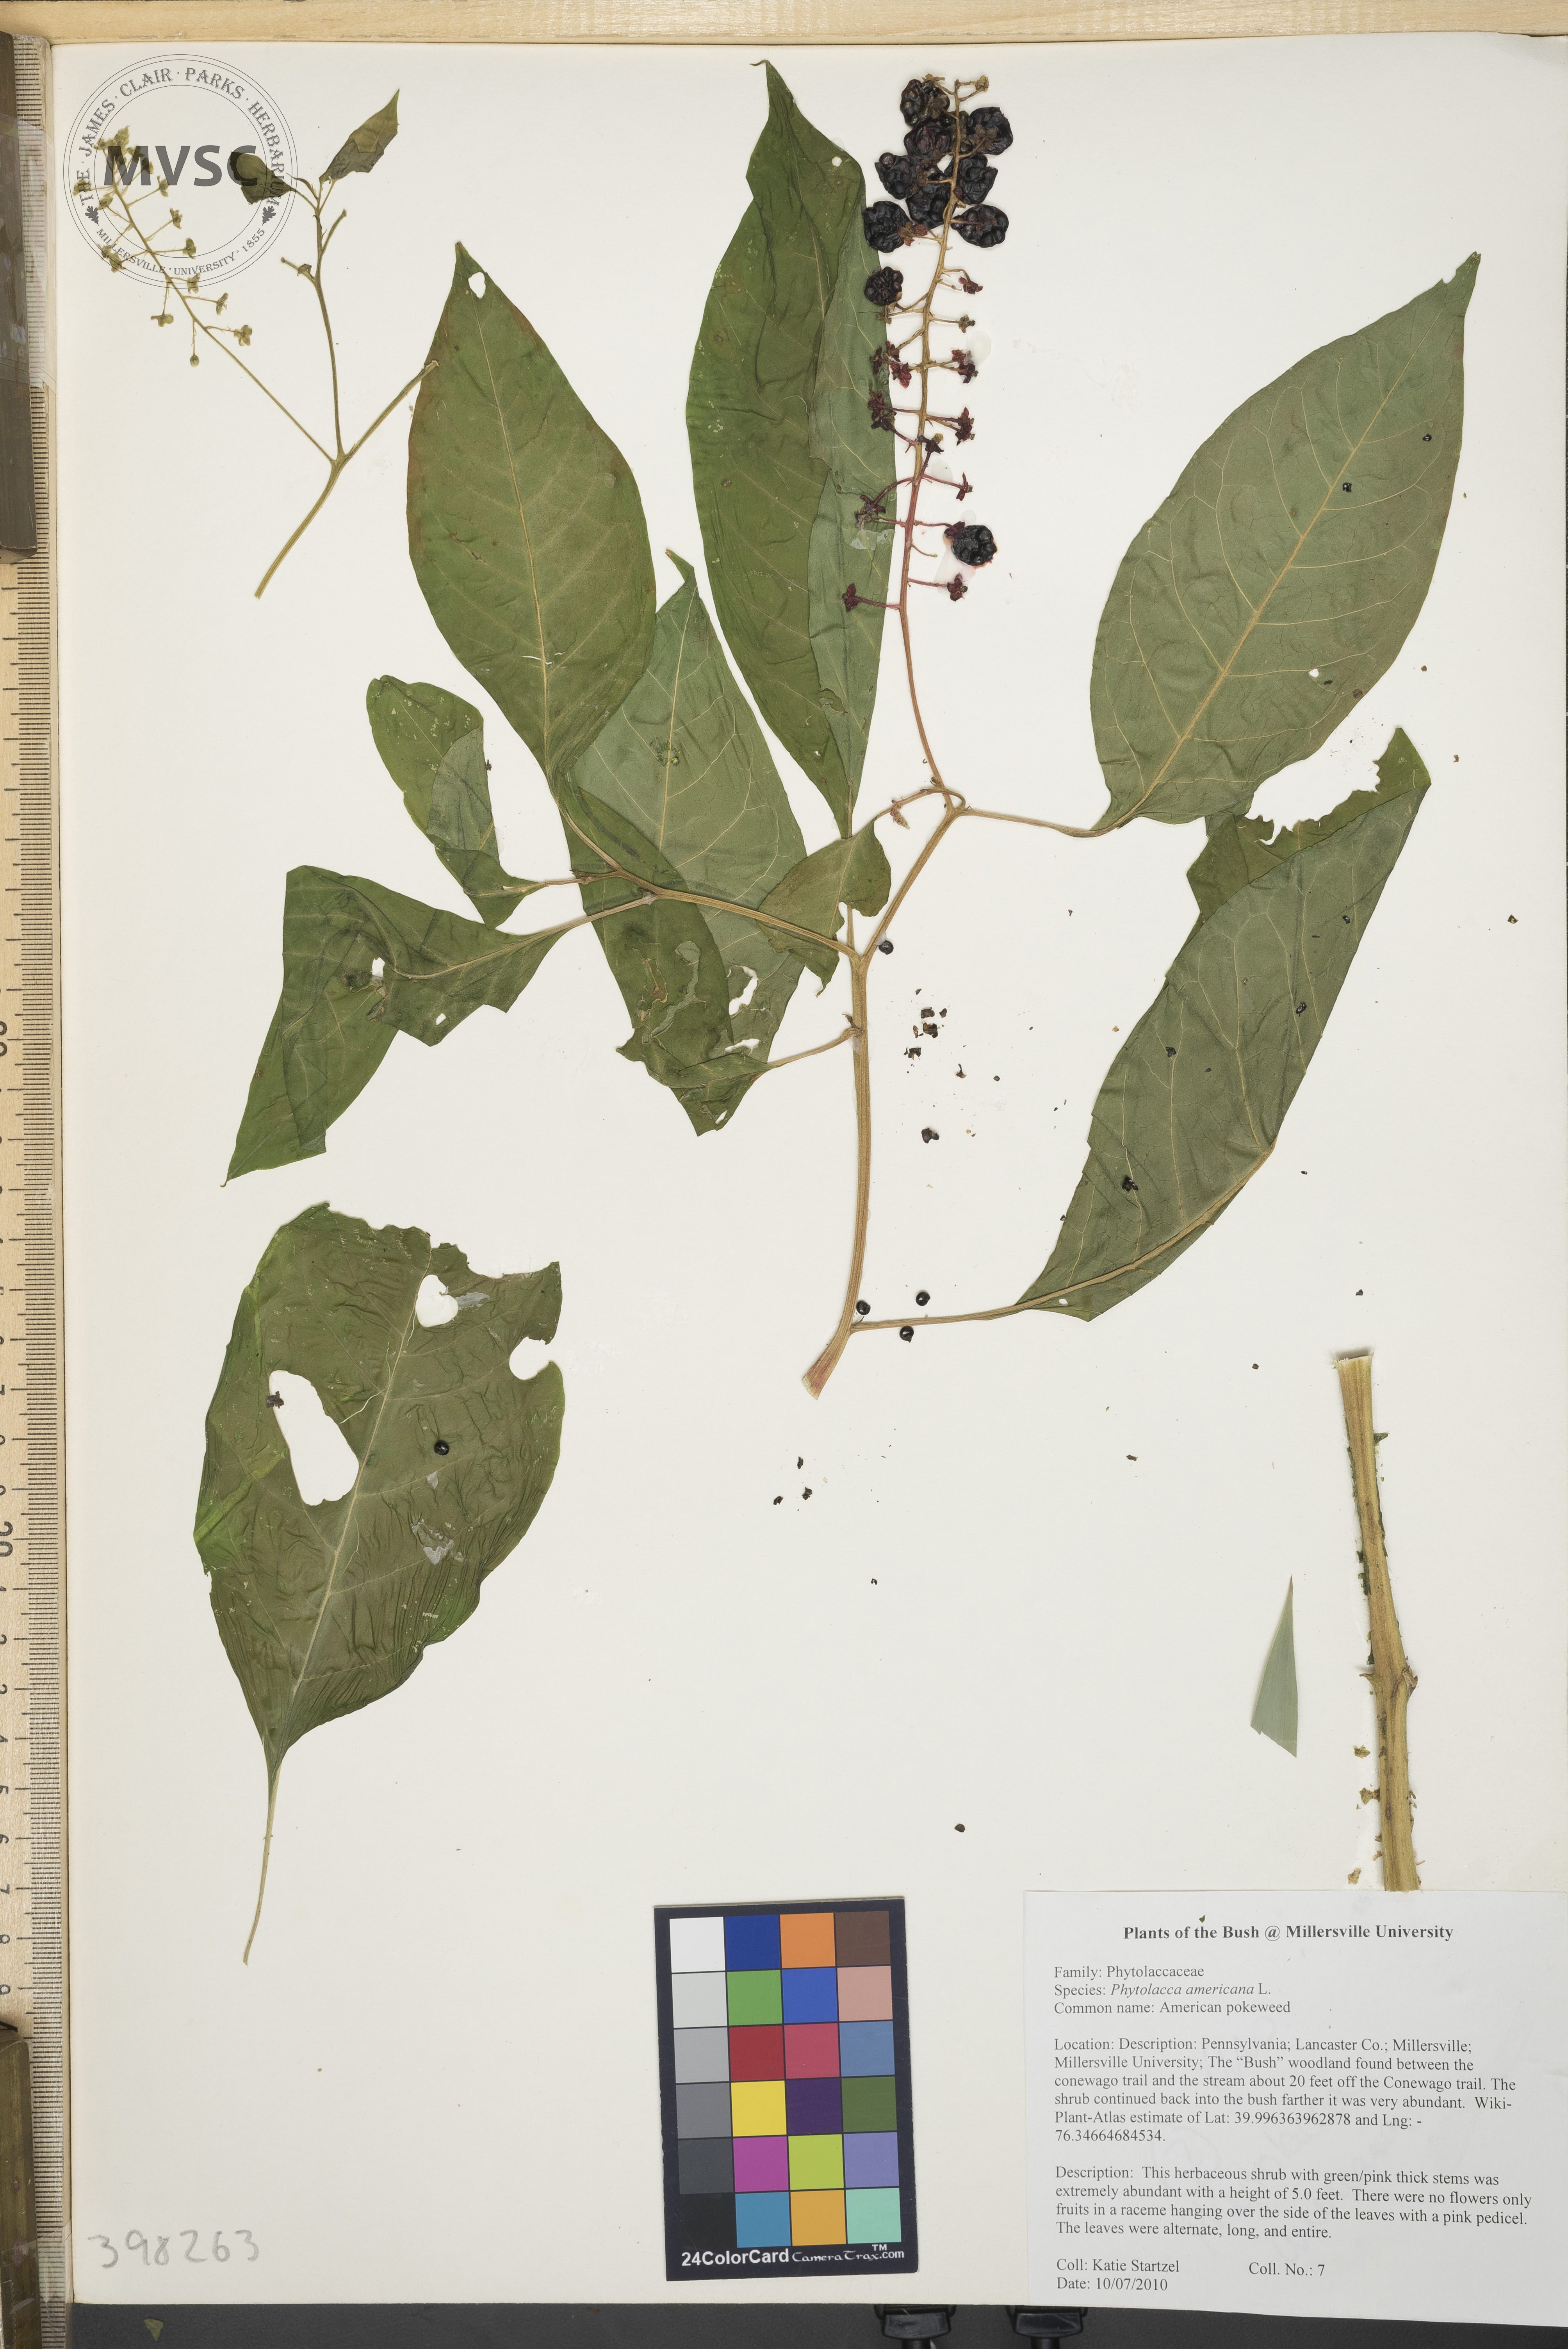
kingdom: Plantae
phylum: Tracheophyta
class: Magnoliopsida
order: Caryophyllales
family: Phytolaccaceae
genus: Phytolacca
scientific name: Phytolacca americana
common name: Pokeweed
